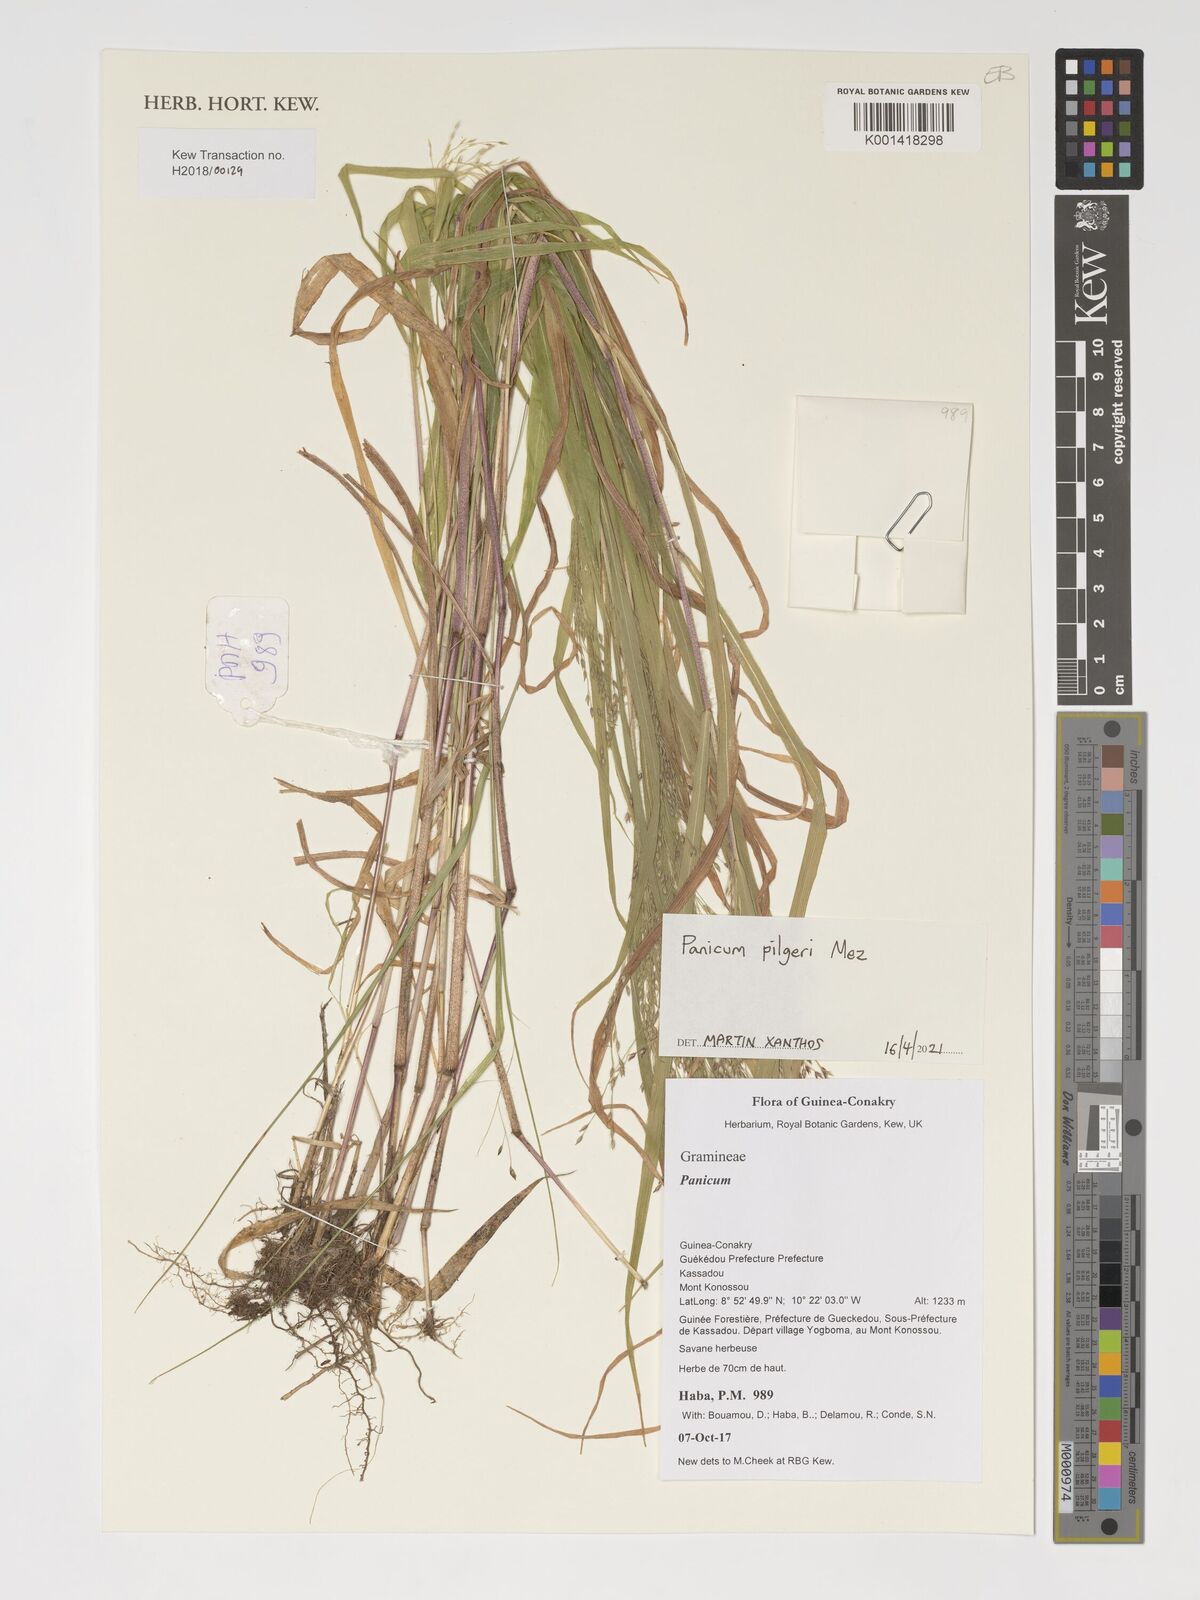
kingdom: Plantae
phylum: Tracheophyta
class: Liliopsida
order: Poales
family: Poaceae
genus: Panicum
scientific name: Panicum pilgeri
